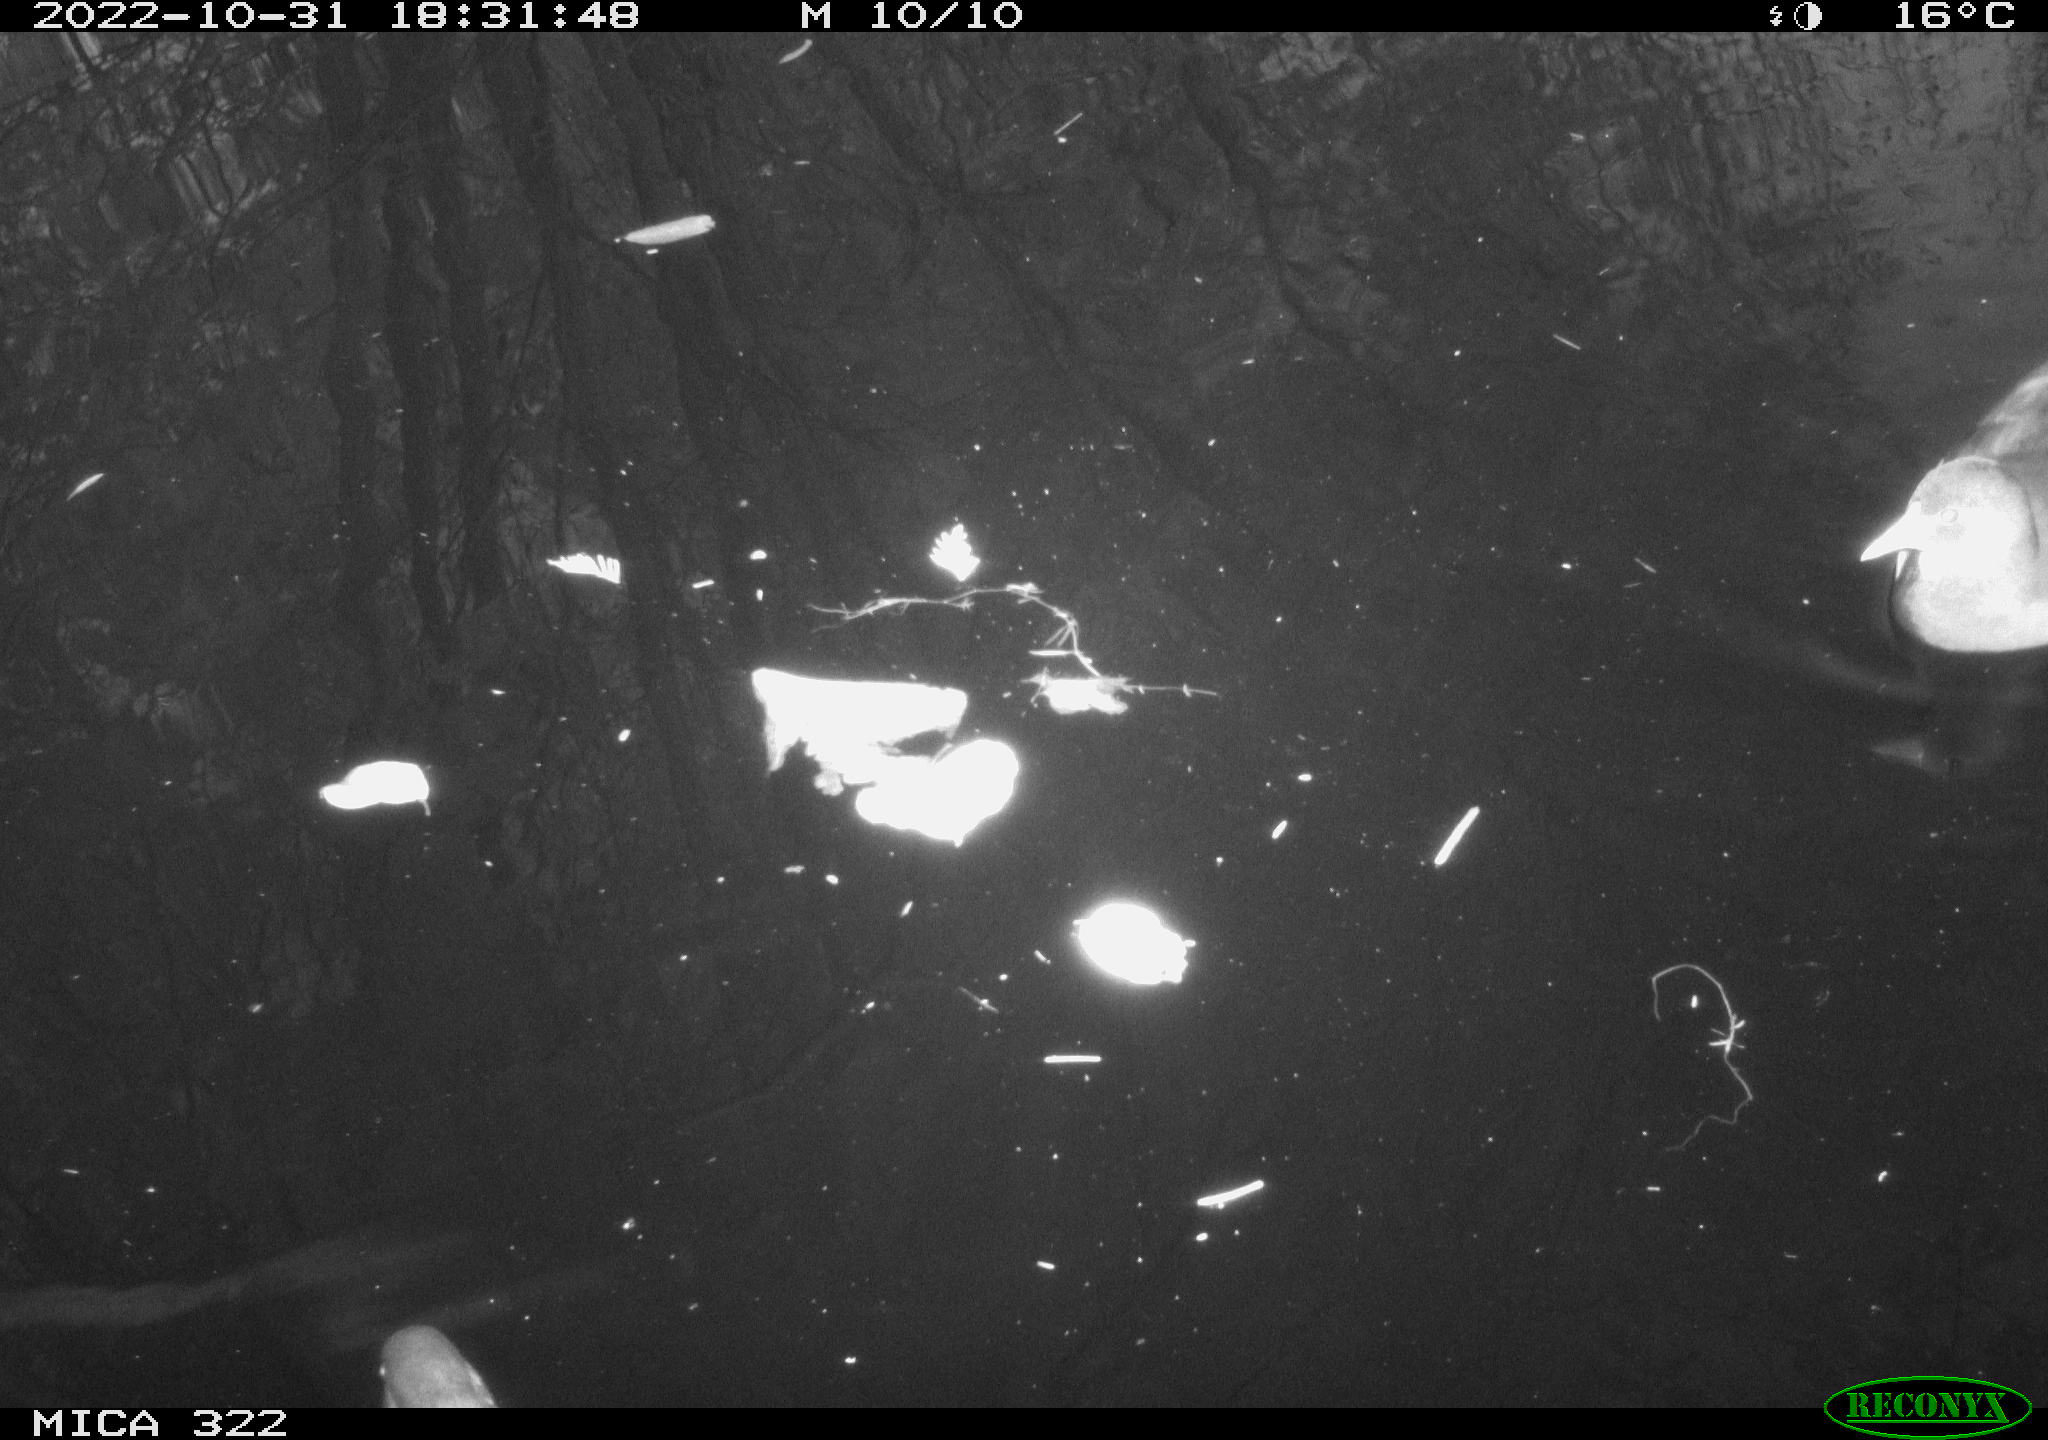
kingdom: Animalia
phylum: Chordata
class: Aves
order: Pelecaniformes
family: Ardeidae
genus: Ardea
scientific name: Ardea cinerea
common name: Grey heron
